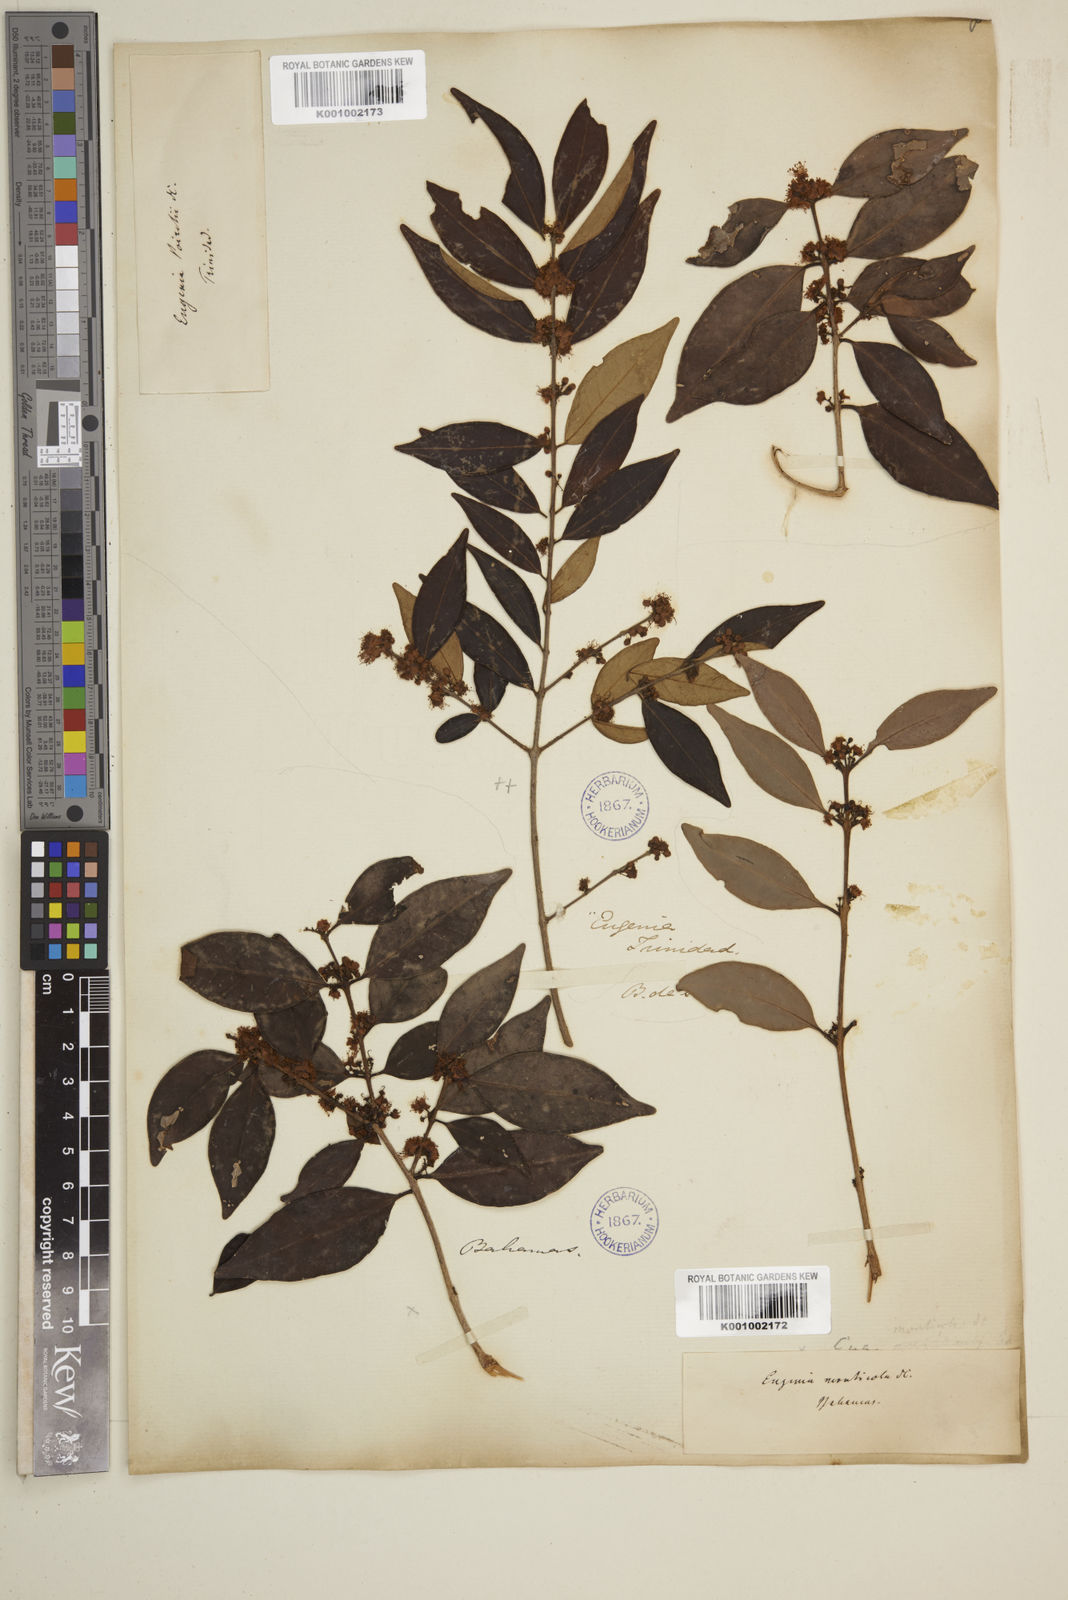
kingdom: Plantae
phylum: Tracheophyta
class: Magnoliopsida
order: Myrtales
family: Myrtaceae
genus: Eugenia
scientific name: Eugenia monticola
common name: Birds berry
